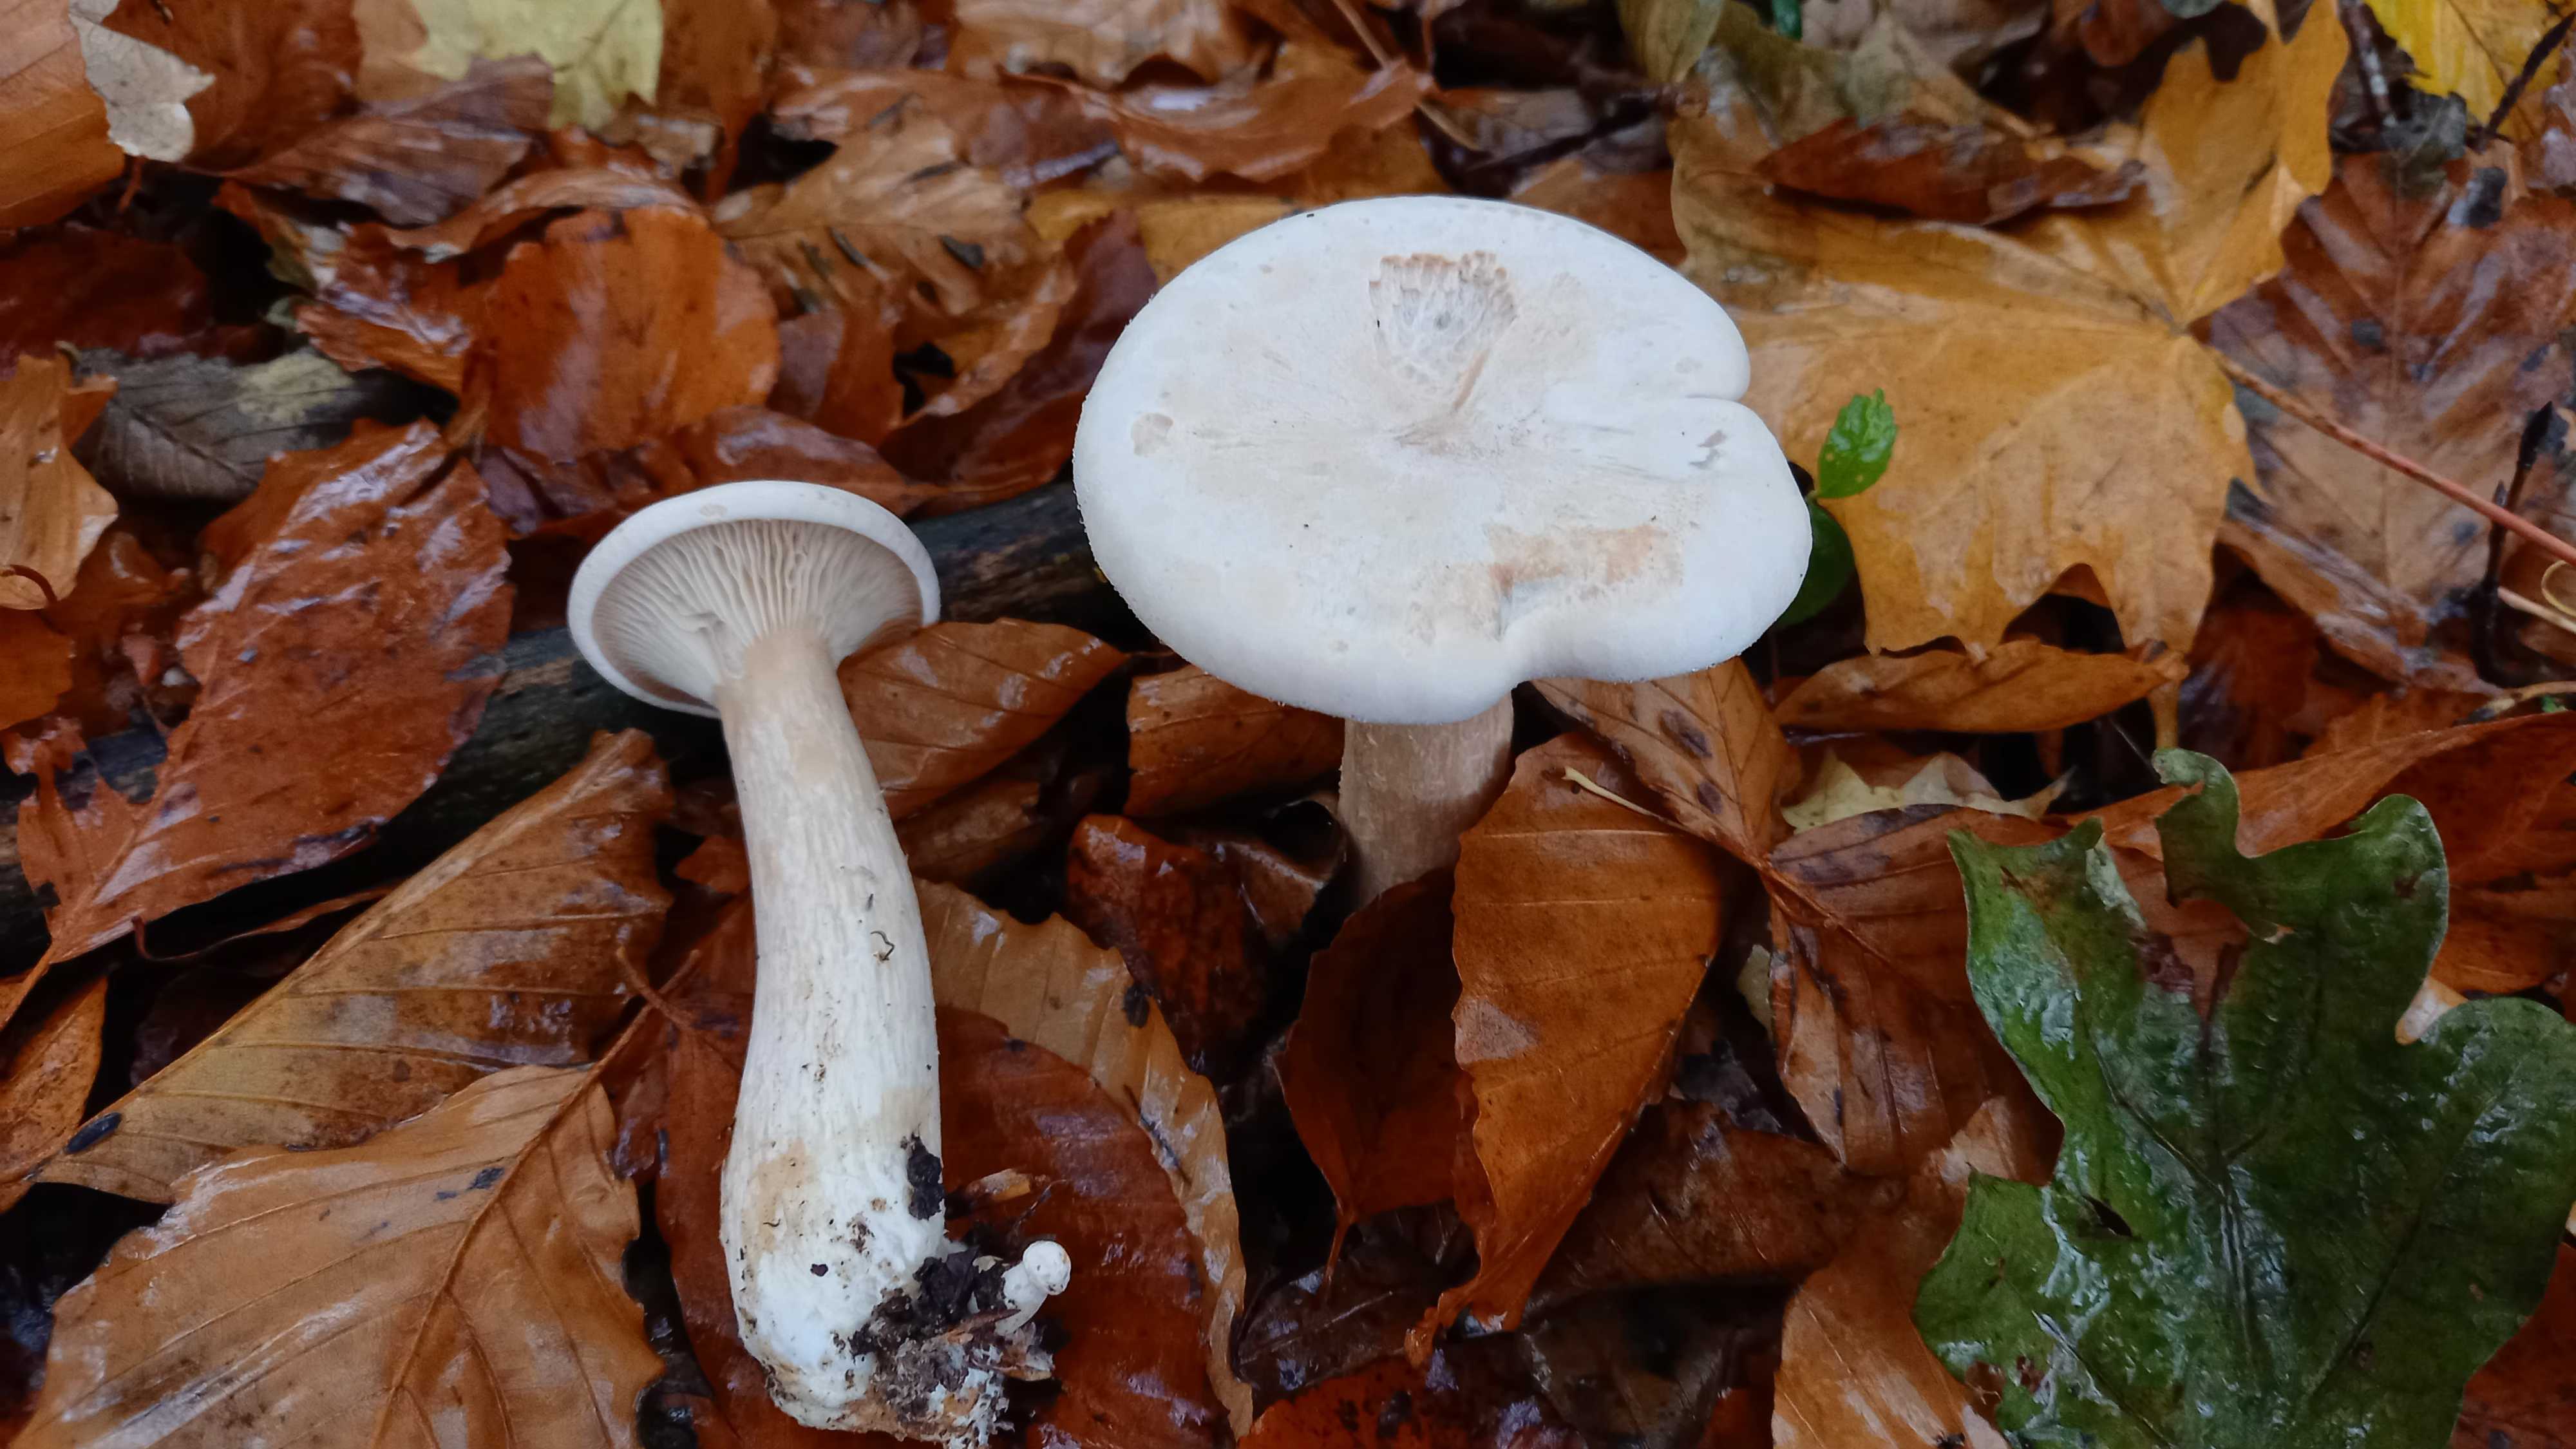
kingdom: Fungi
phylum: Basidiomycota
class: Agaricomycetes
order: Agaricales
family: Tricholomataceae
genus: Infundibulicybe
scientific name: Infundibulicybe geotropa
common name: stor tragthat
